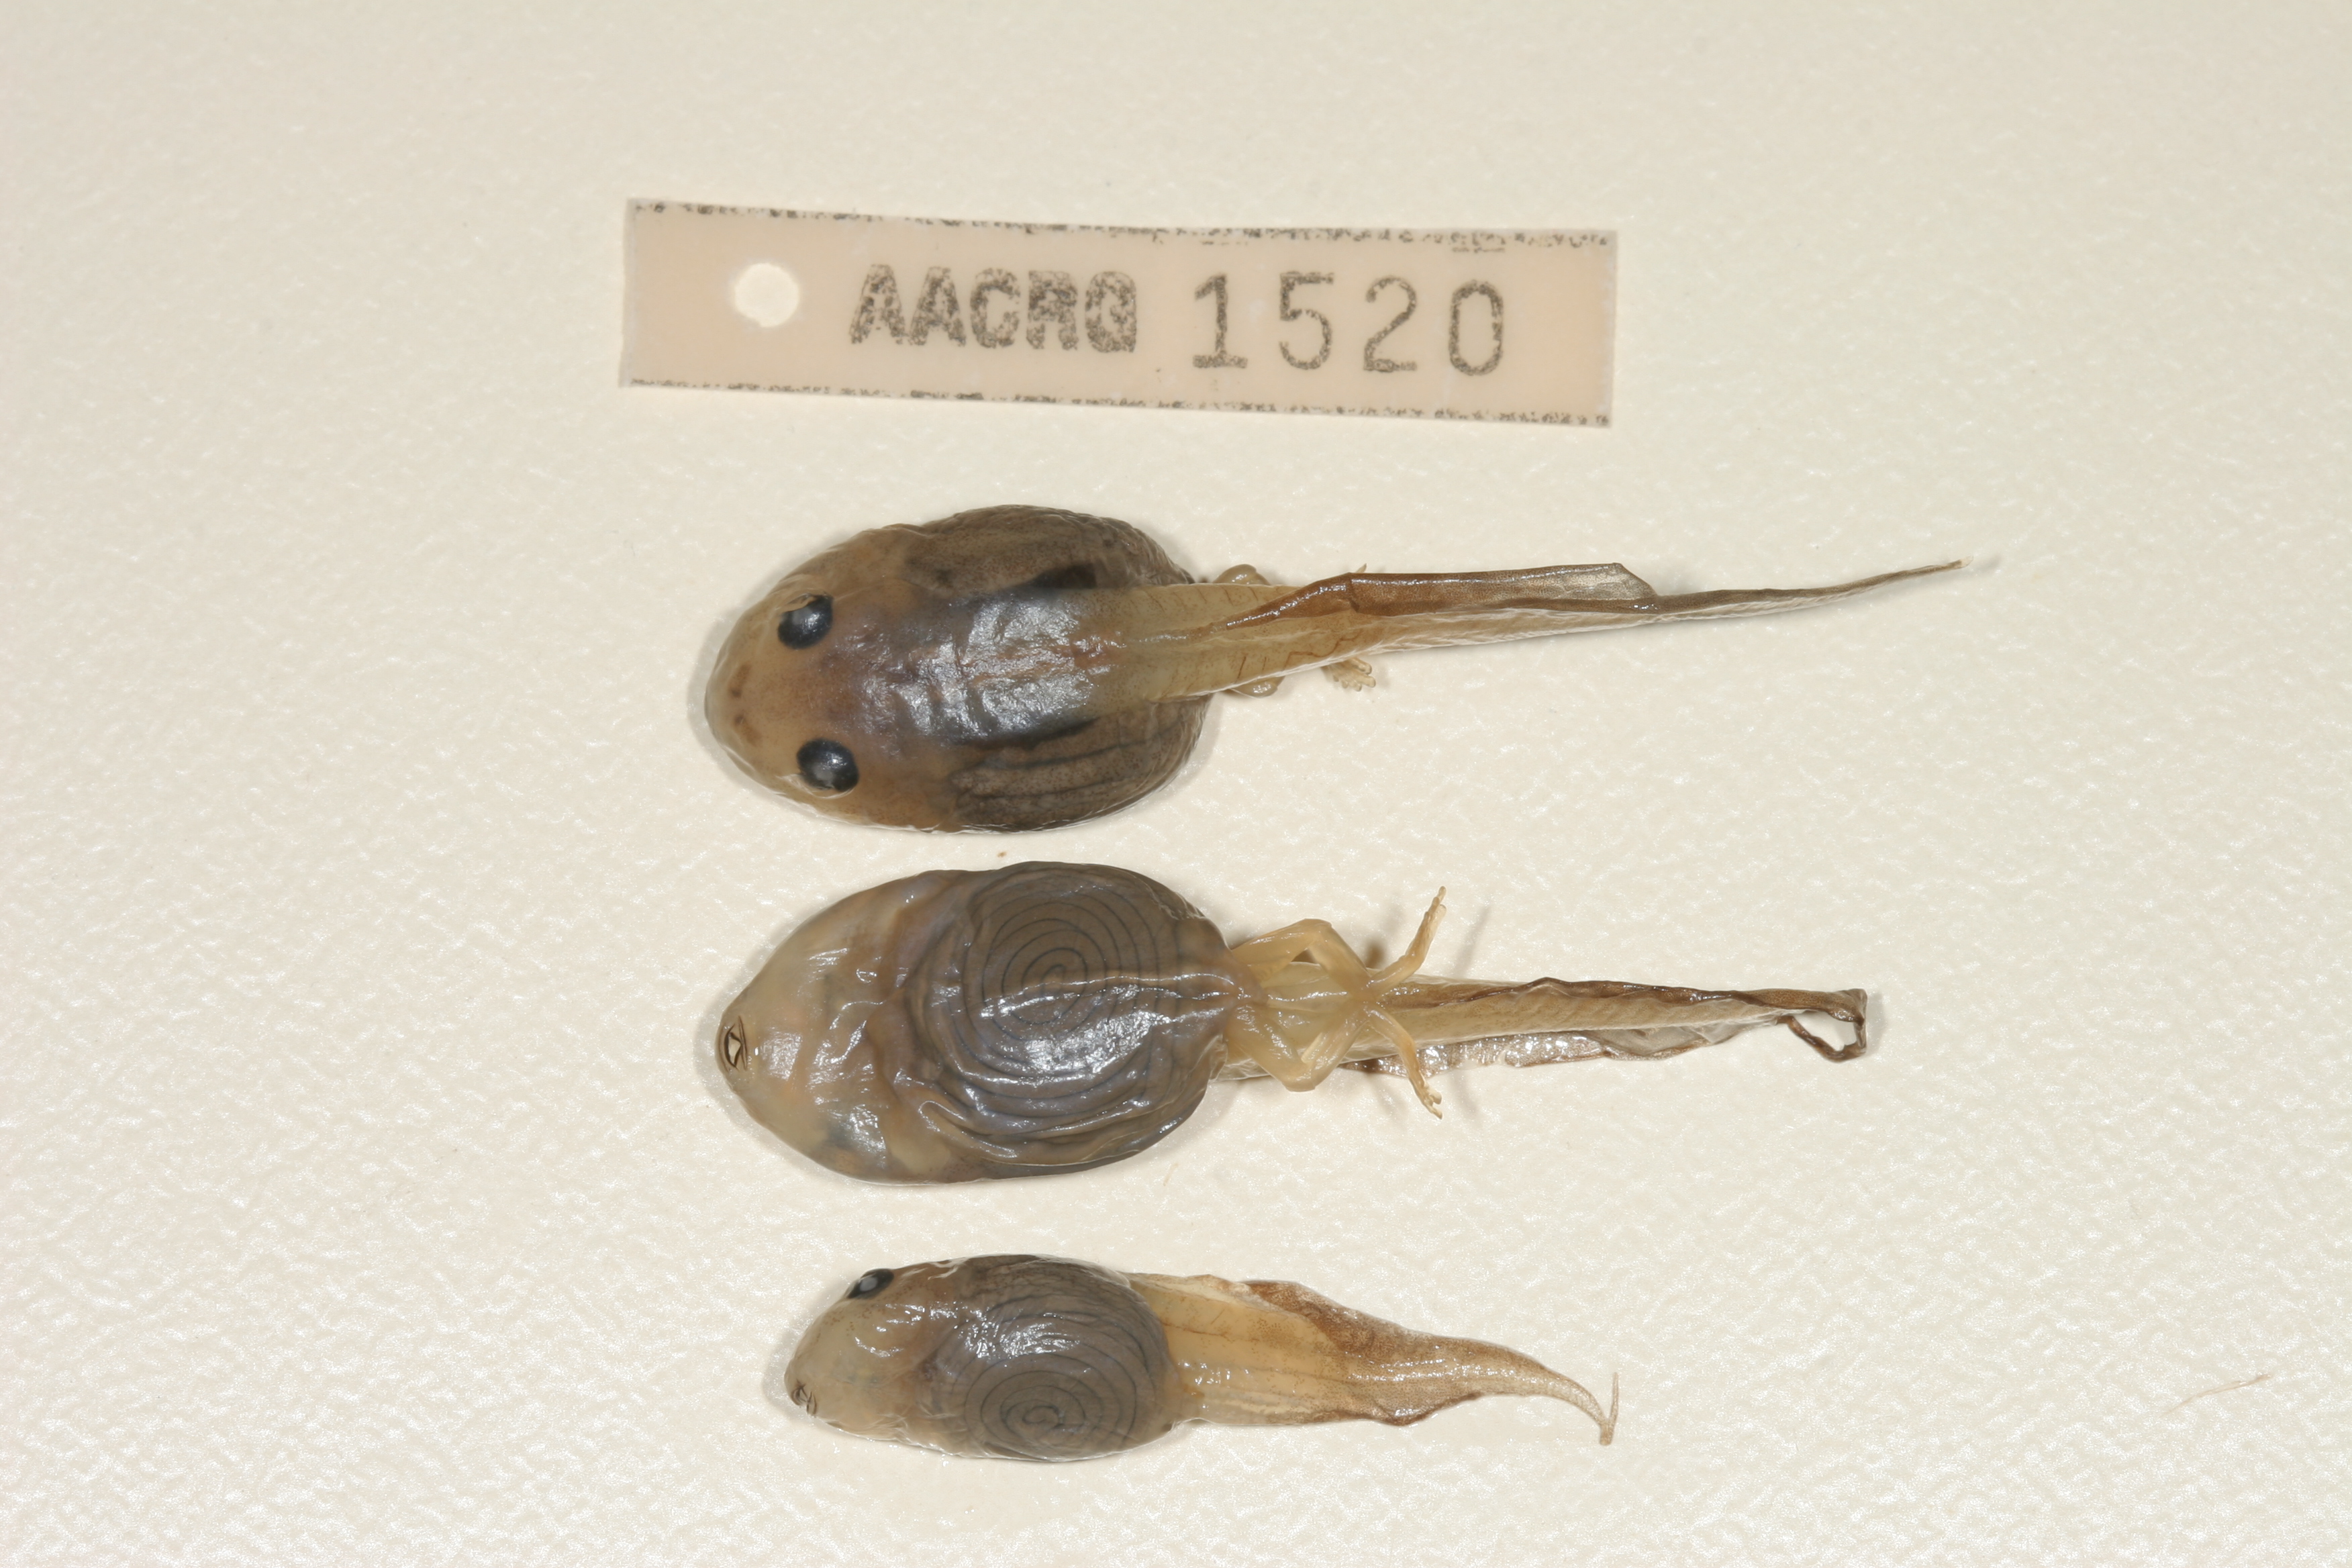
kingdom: Animalia
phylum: Chordata
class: Amphibia
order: Anura
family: Rhacophoridae
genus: Chiromantis
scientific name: Chiromantis xerampelina
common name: African gray treefrog
